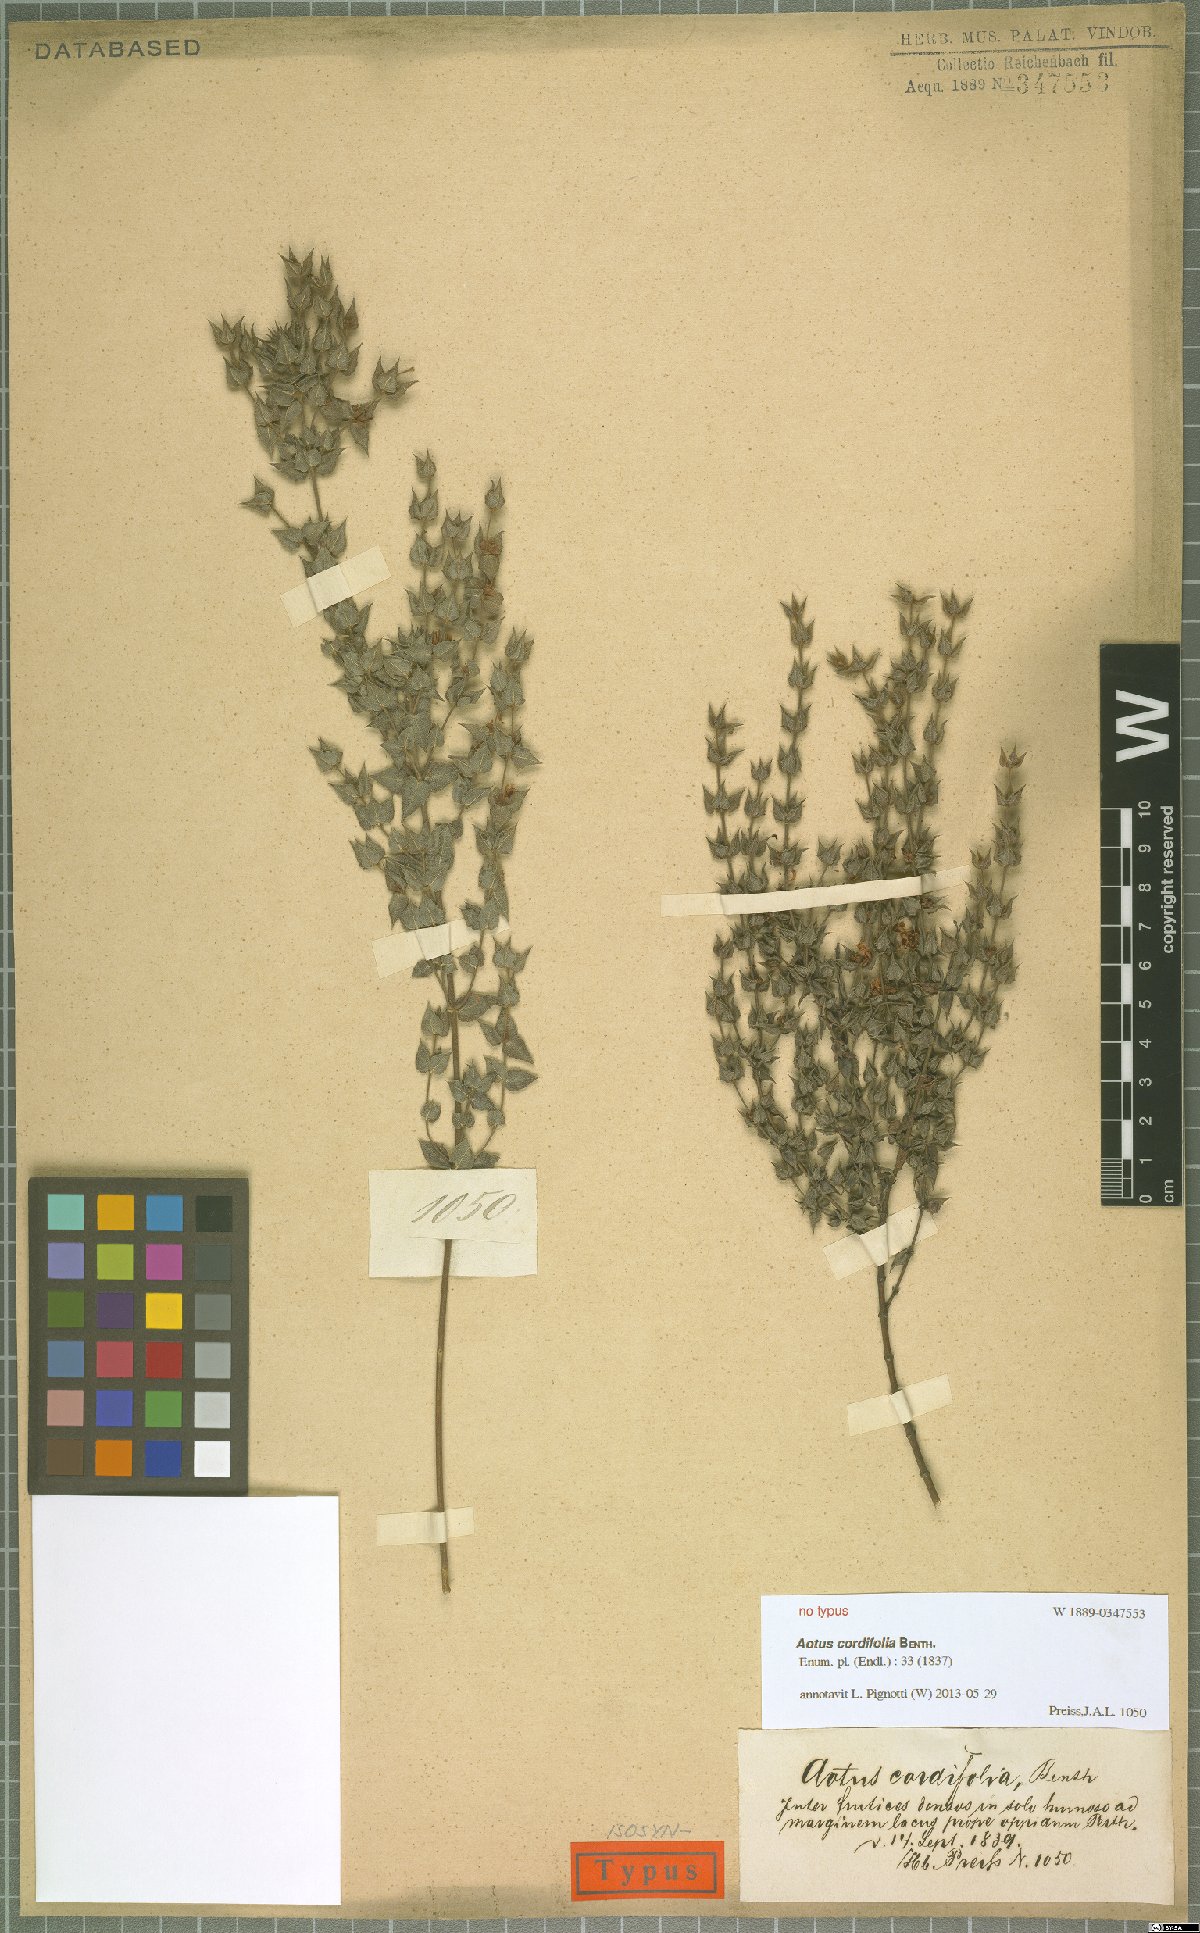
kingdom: Plantae
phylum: Tracheophyta
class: Magnoliopsida
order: Fabales
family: Fabaceae
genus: Aotus
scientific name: Aotus cordifolia
